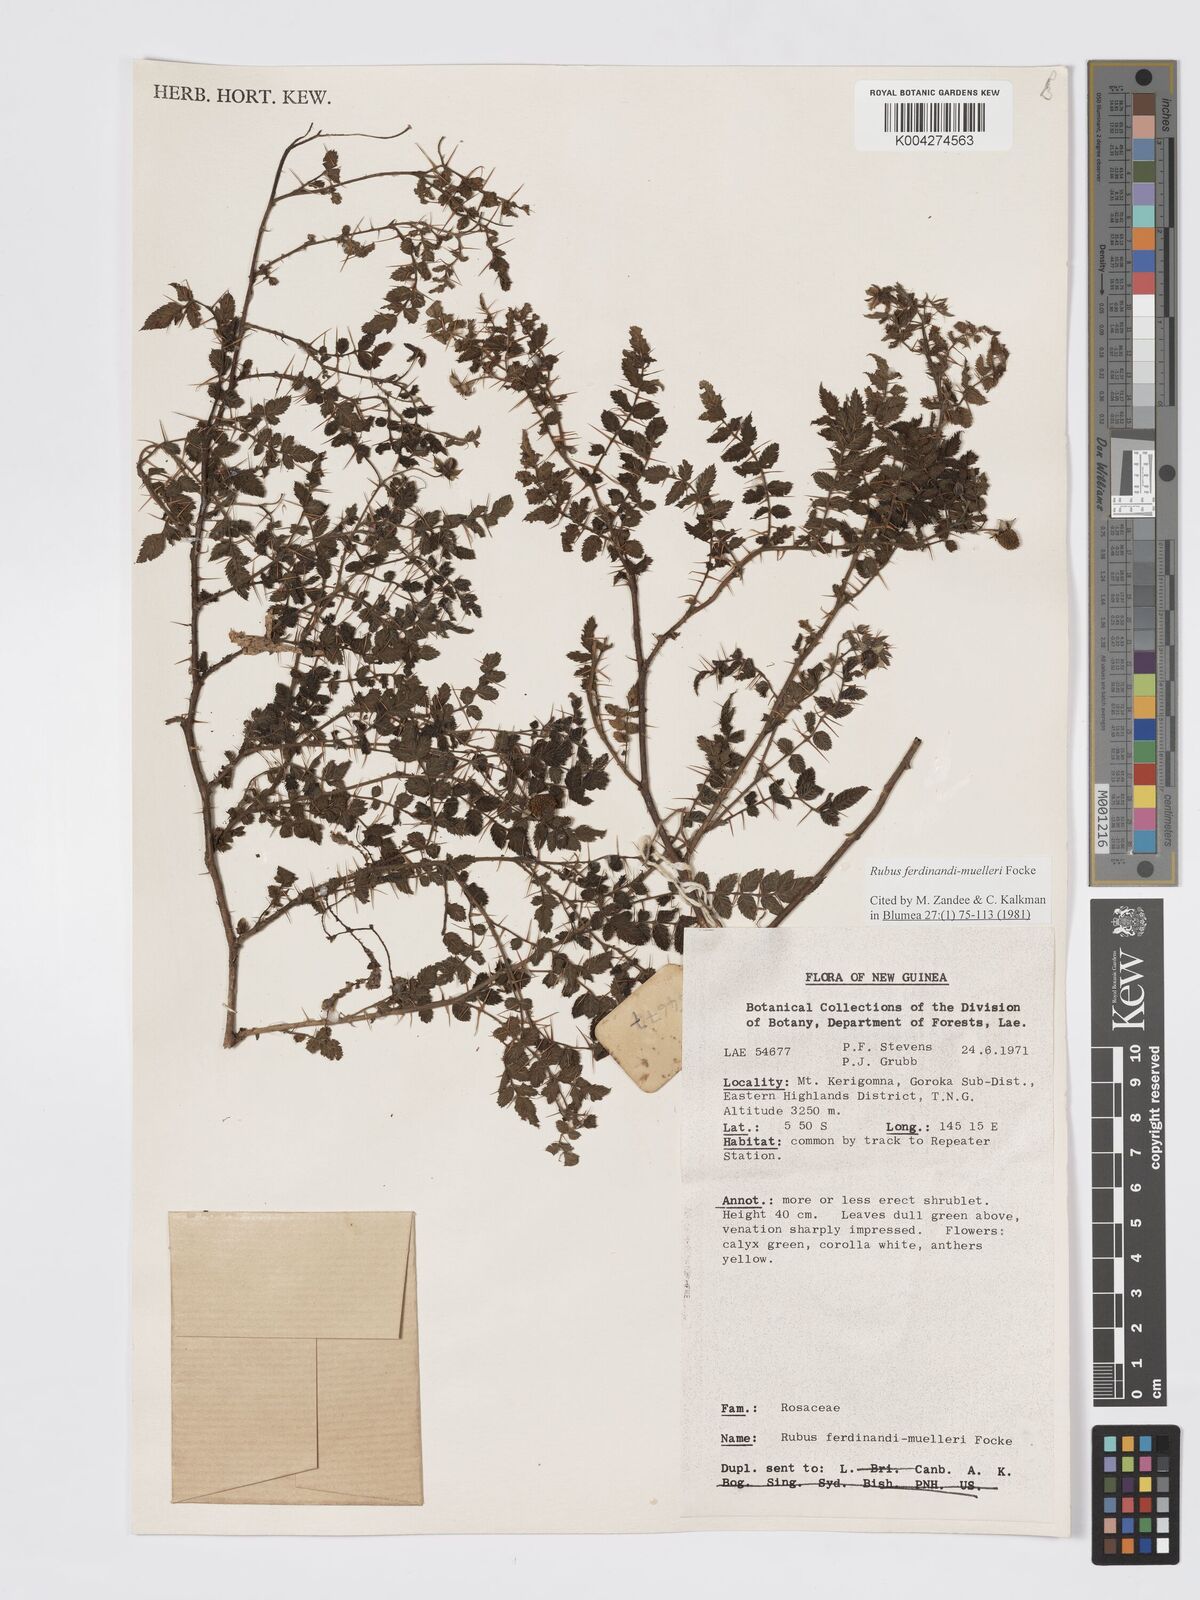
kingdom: Plantae
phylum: Tracheophyta
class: Magnoliopsida
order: Rosales
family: Rosaceae
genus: Rubus
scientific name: Rubus ferdinandimuelleri
